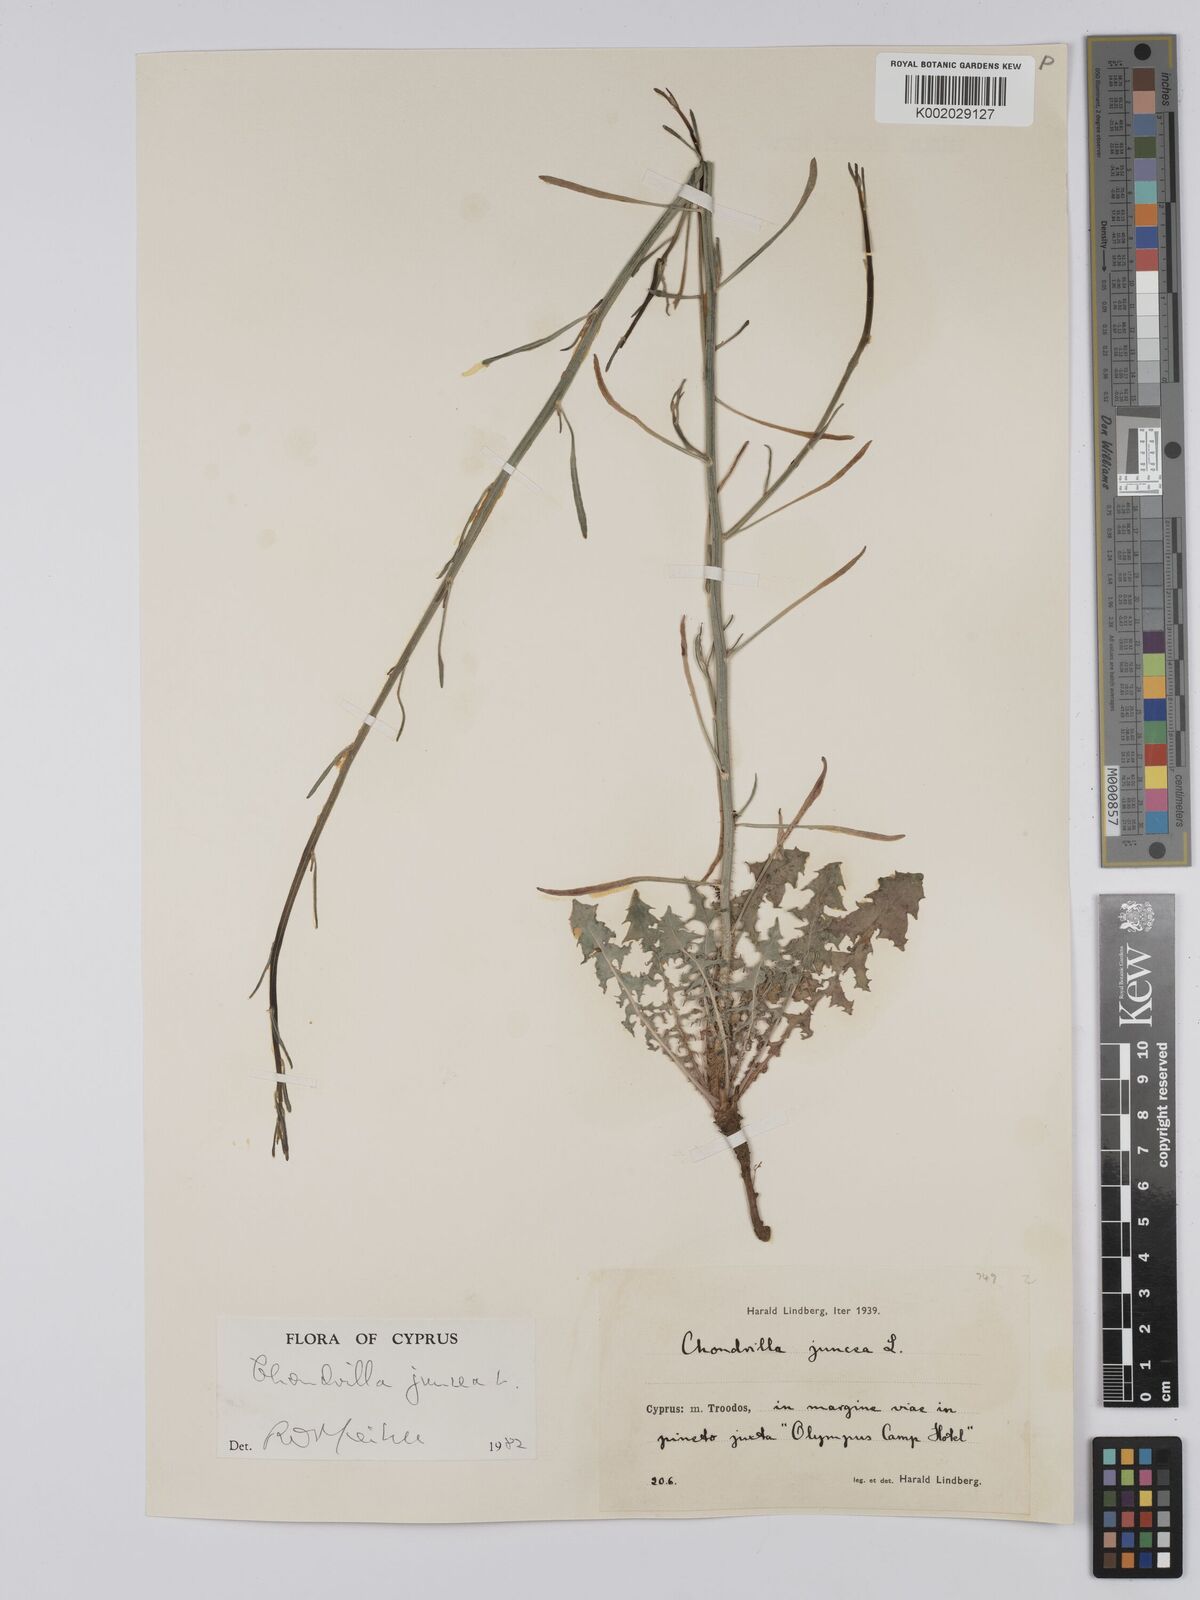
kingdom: Plantae
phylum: Tracheophyta
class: Magnoliopsida
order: Asterales
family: Asteraceae
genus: Chondrilla
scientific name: Chondrilla juncea
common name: Skeleton weed
